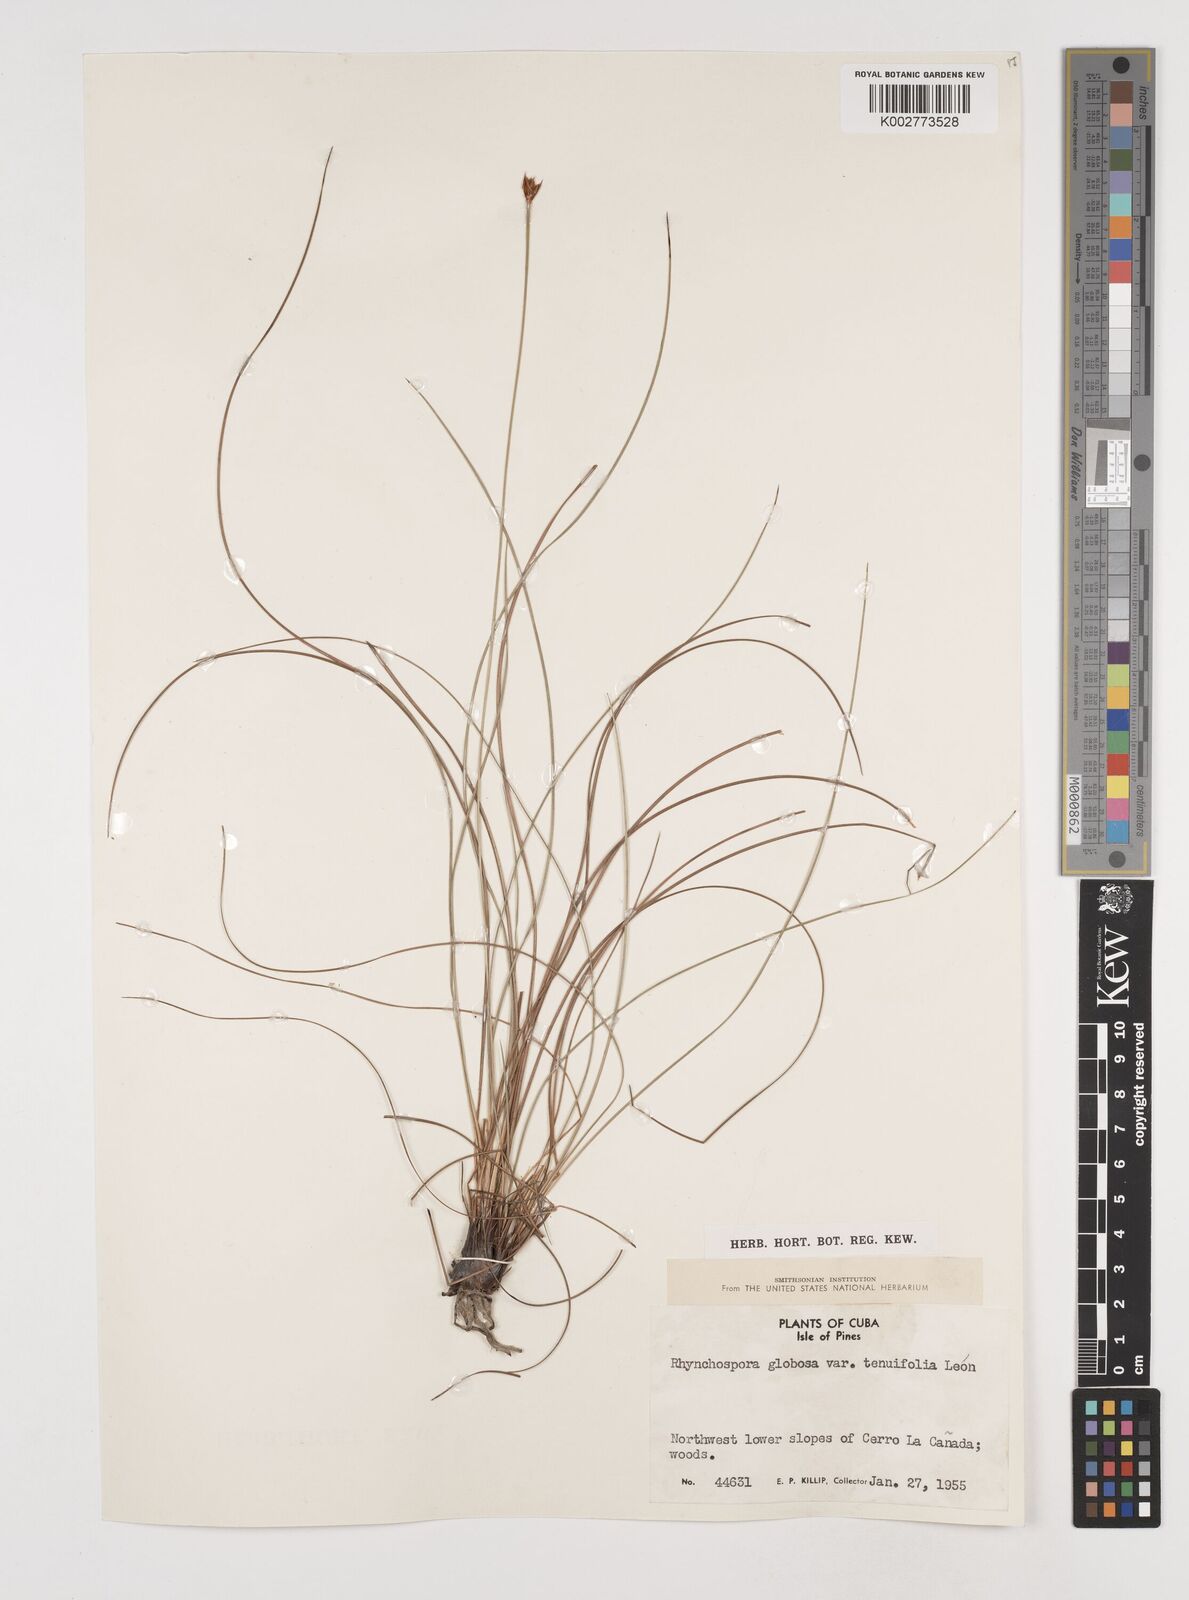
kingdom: Plantae
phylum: Tracheophyta
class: Liliopsida
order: Poales
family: Cyperaceae
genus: Rhynchospora
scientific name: Rhynchospora globosa
